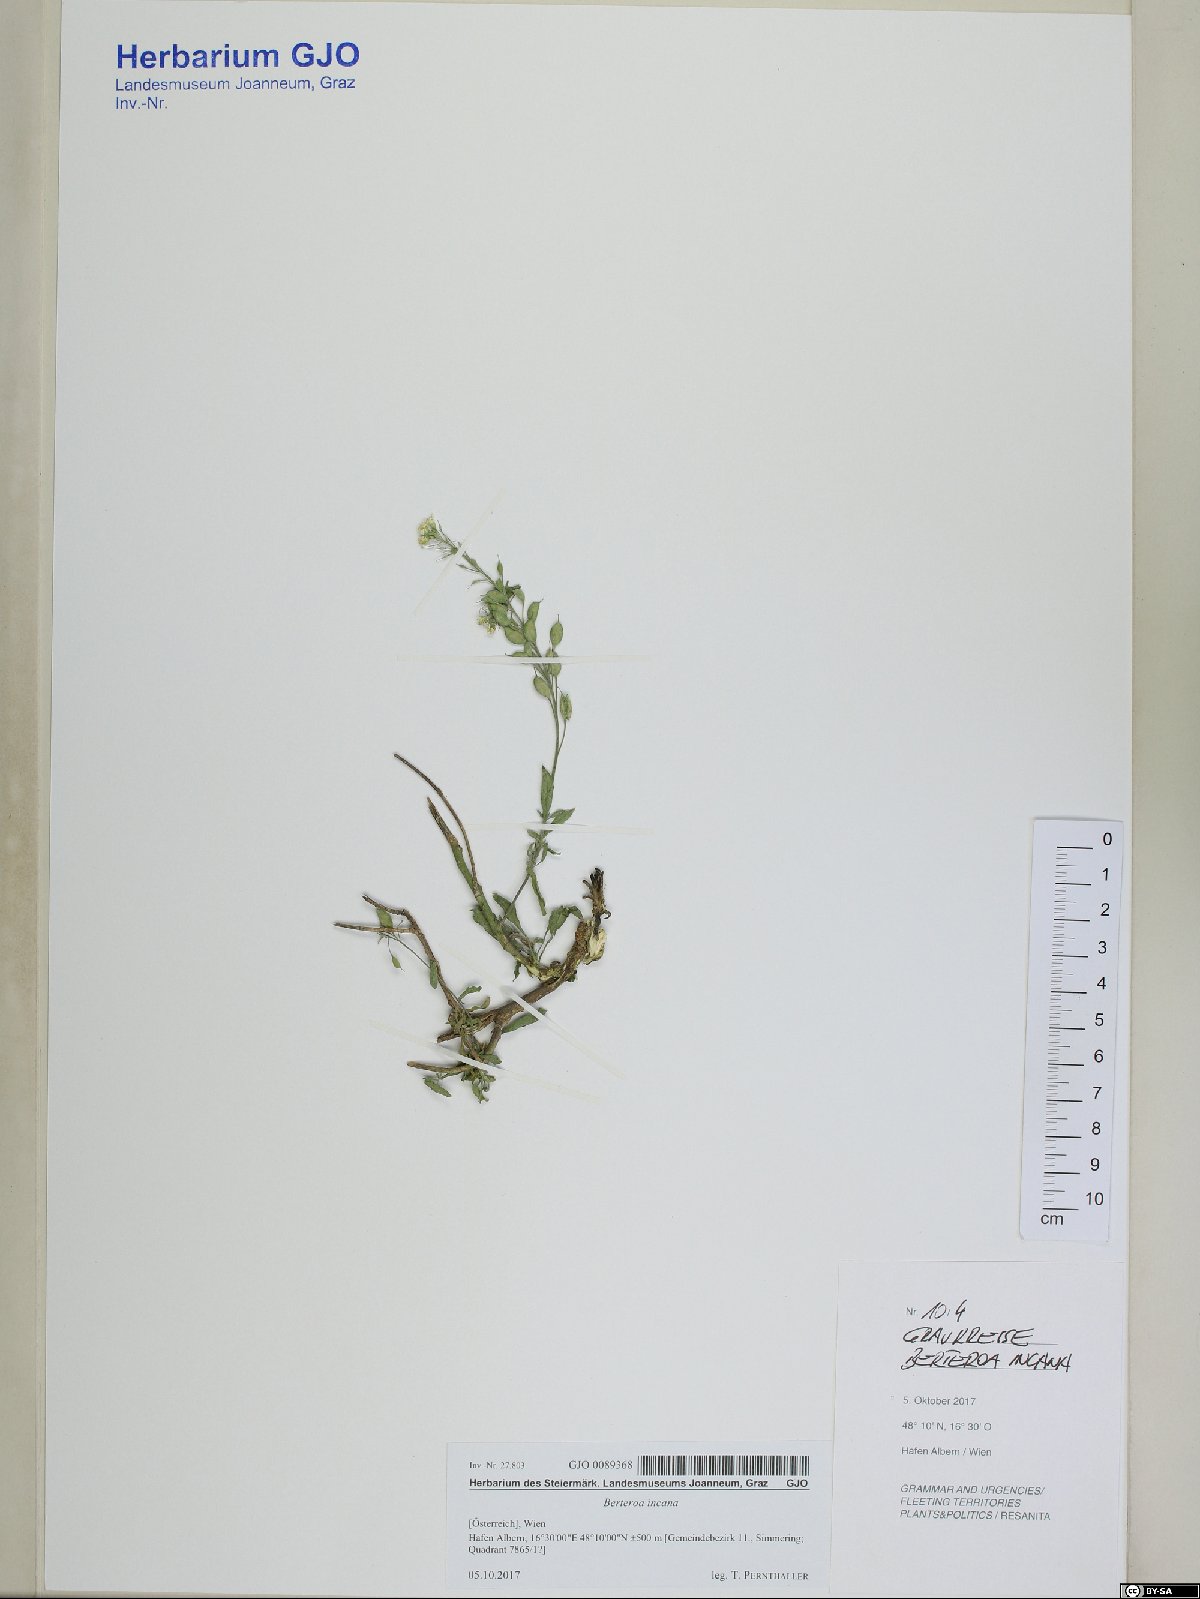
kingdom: Plantae
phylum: Tracheophyta
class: Magnoliopsida
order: Brassicales
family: Brassicaceae
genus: Berteroa
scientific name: Berteroa incana
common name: Hoary alison
